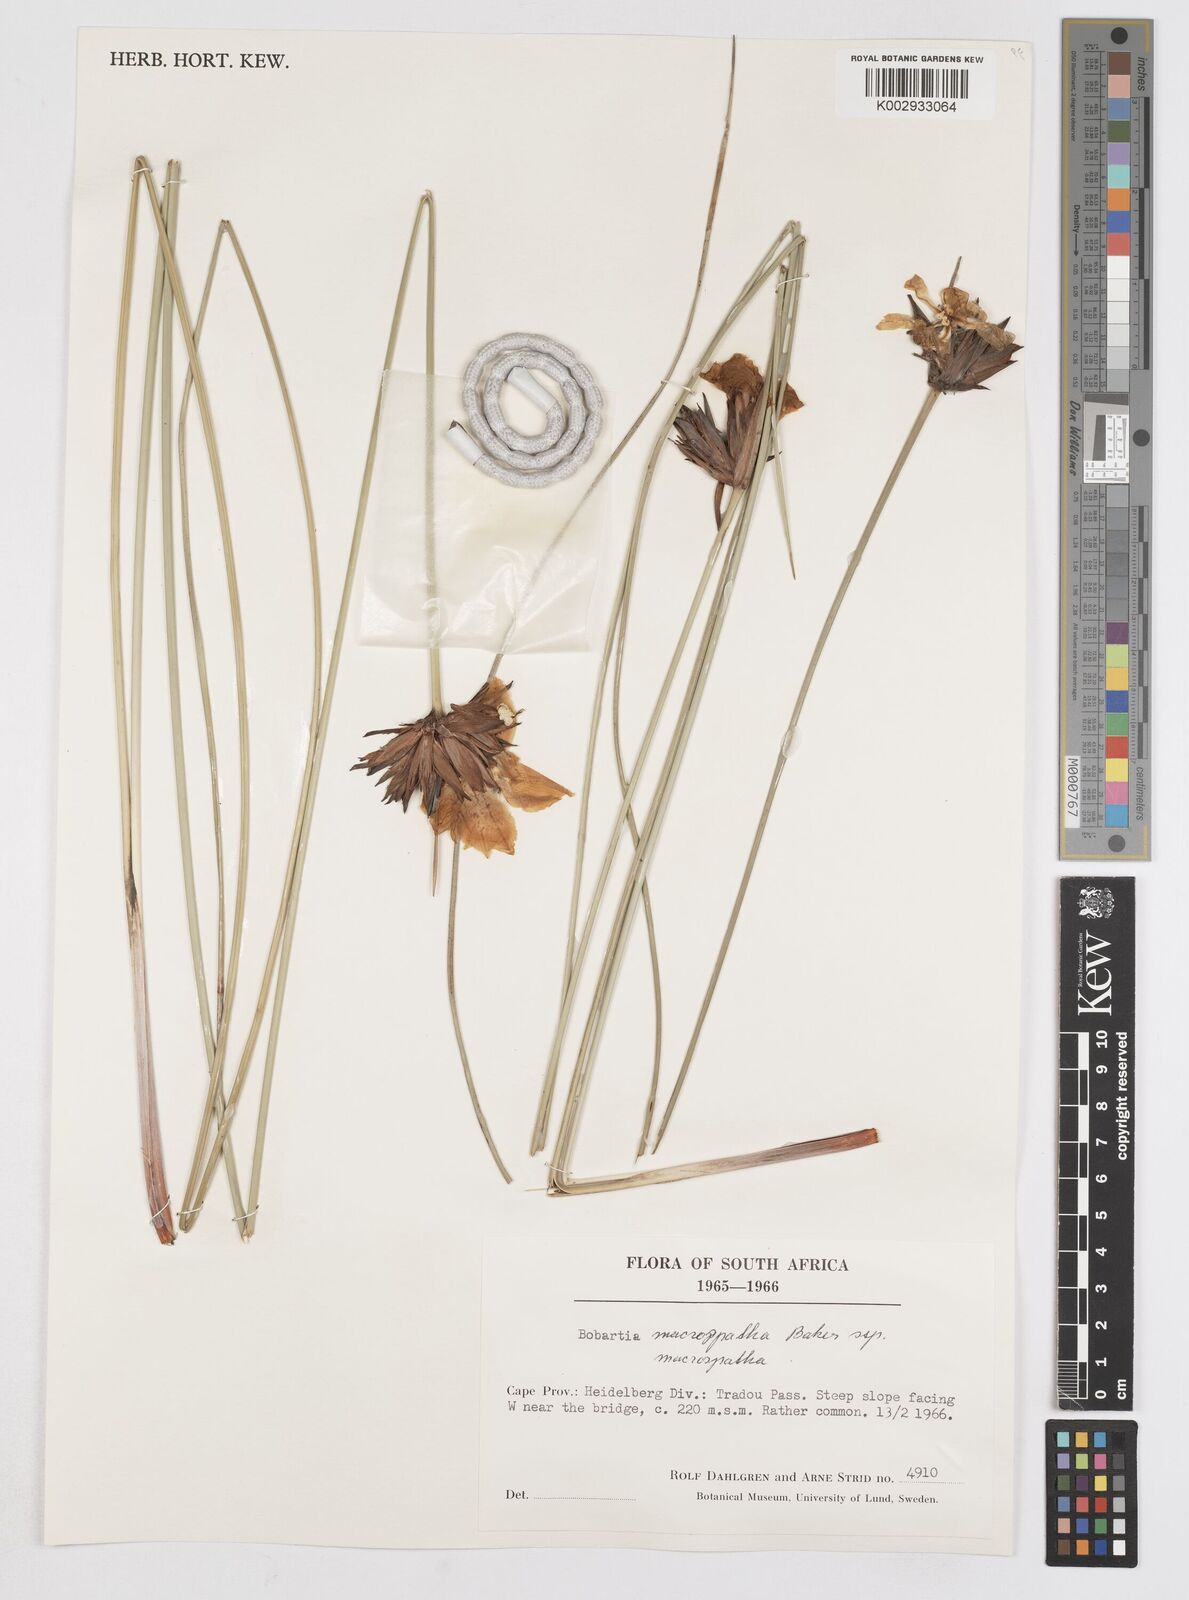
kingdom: Plantae
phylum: Tracheophyta
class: Liliopsida
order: Asparagales
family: Iridaceae
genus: Bobartia
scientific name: Bobartia macrospatha
